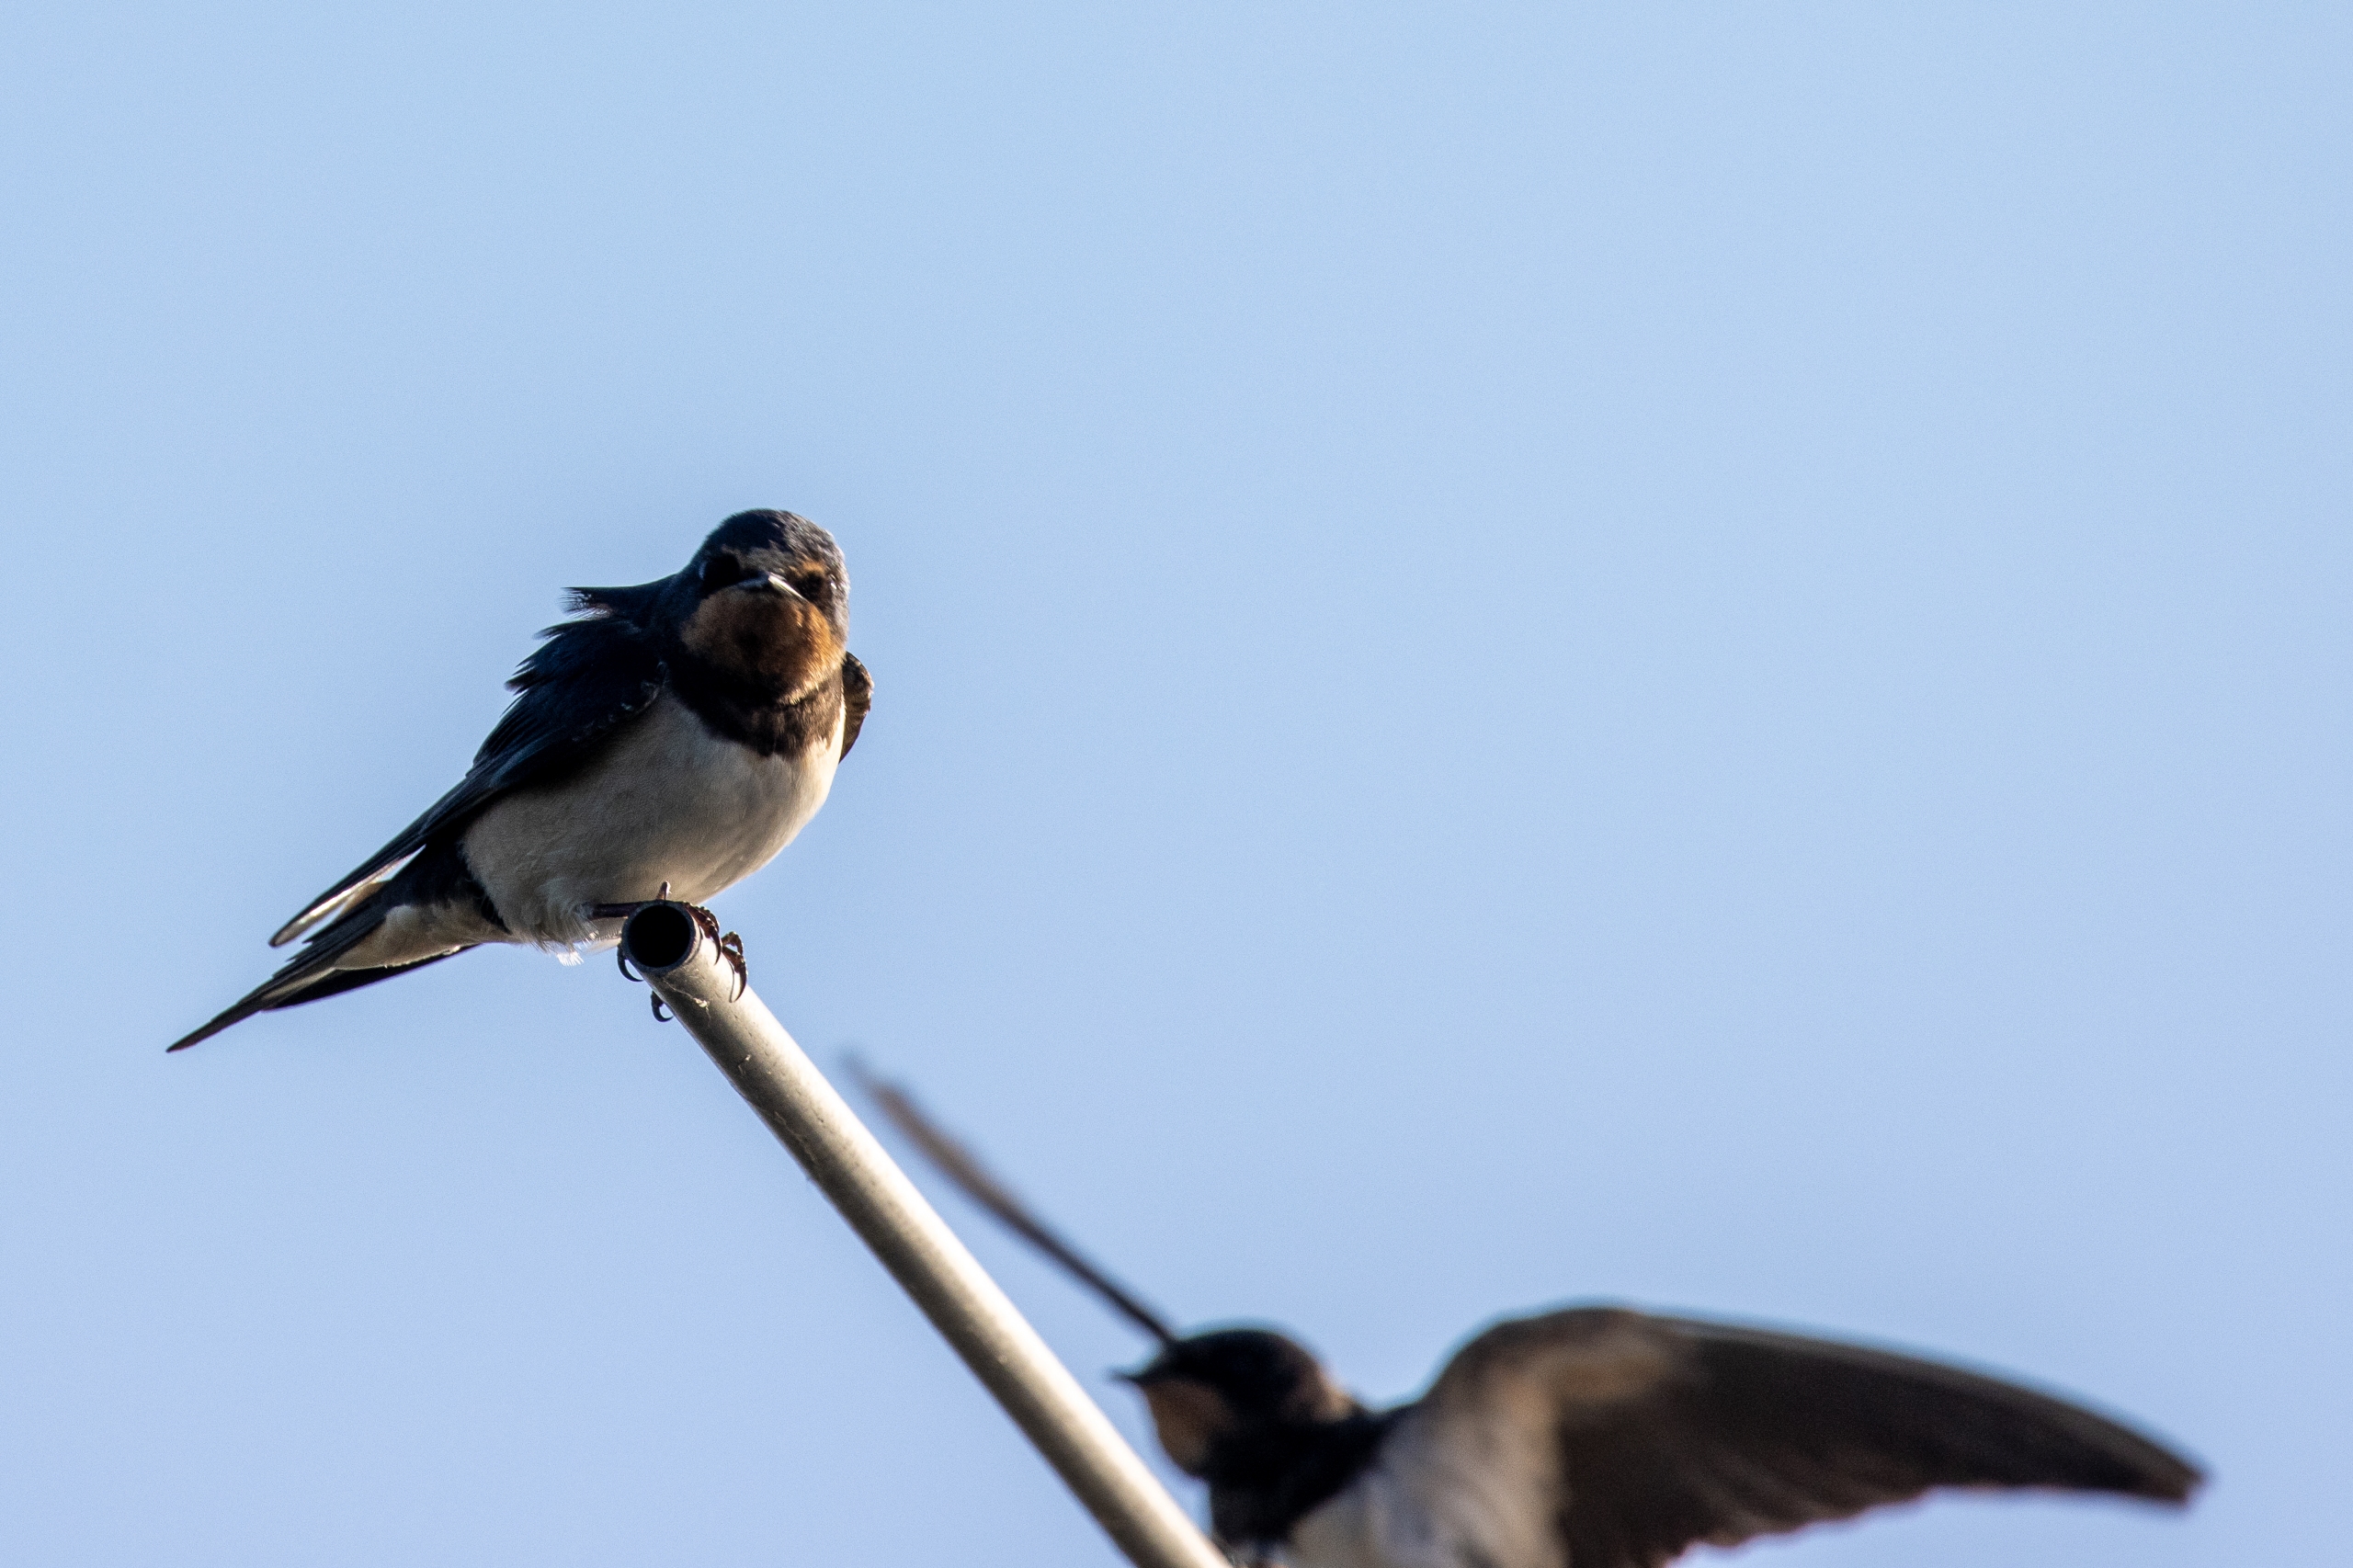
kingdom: Animalia
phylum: Chordata
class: Aves
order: Passeriformes
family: Hirundinidae
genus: Hirundo
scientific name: Hirundo rustica
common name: Landsvale
